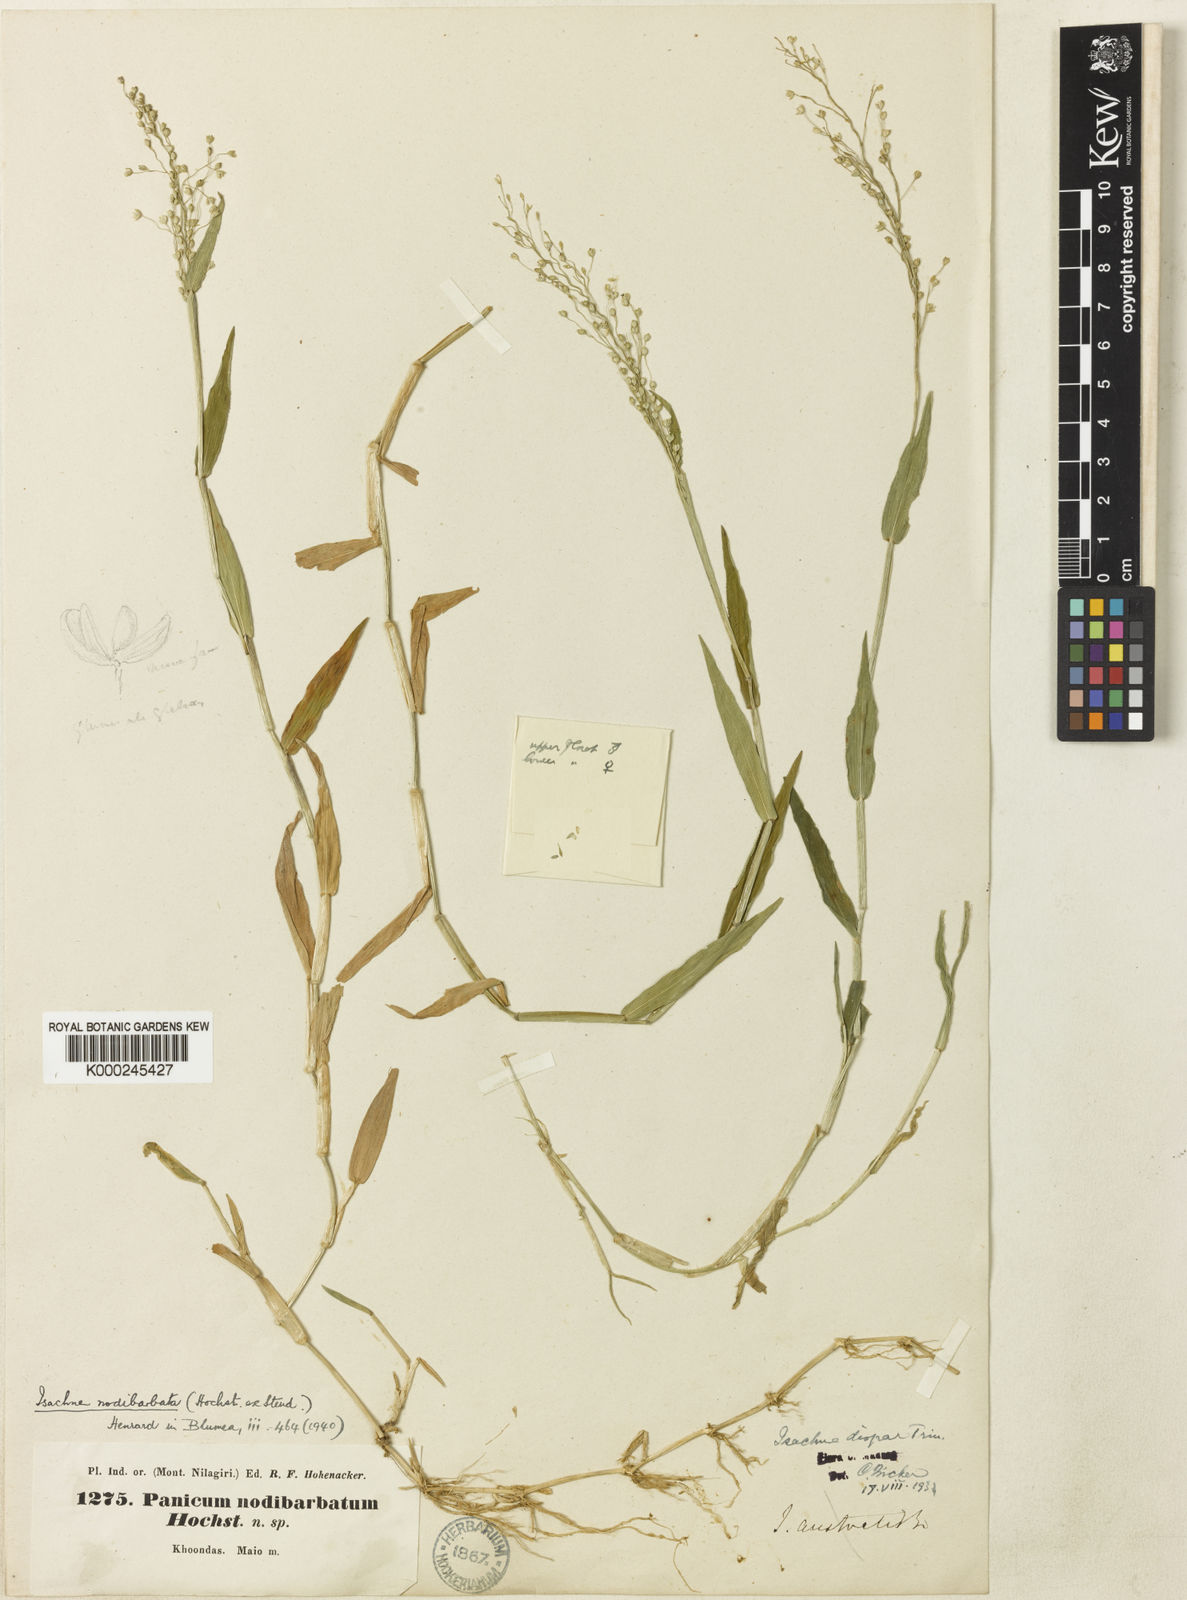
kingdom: Plantae
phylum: Tracheophyta
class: Liliopsida
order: Poales
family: Poaceae
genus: Isachne
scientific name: Isachne globosa
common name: Swamp millet
